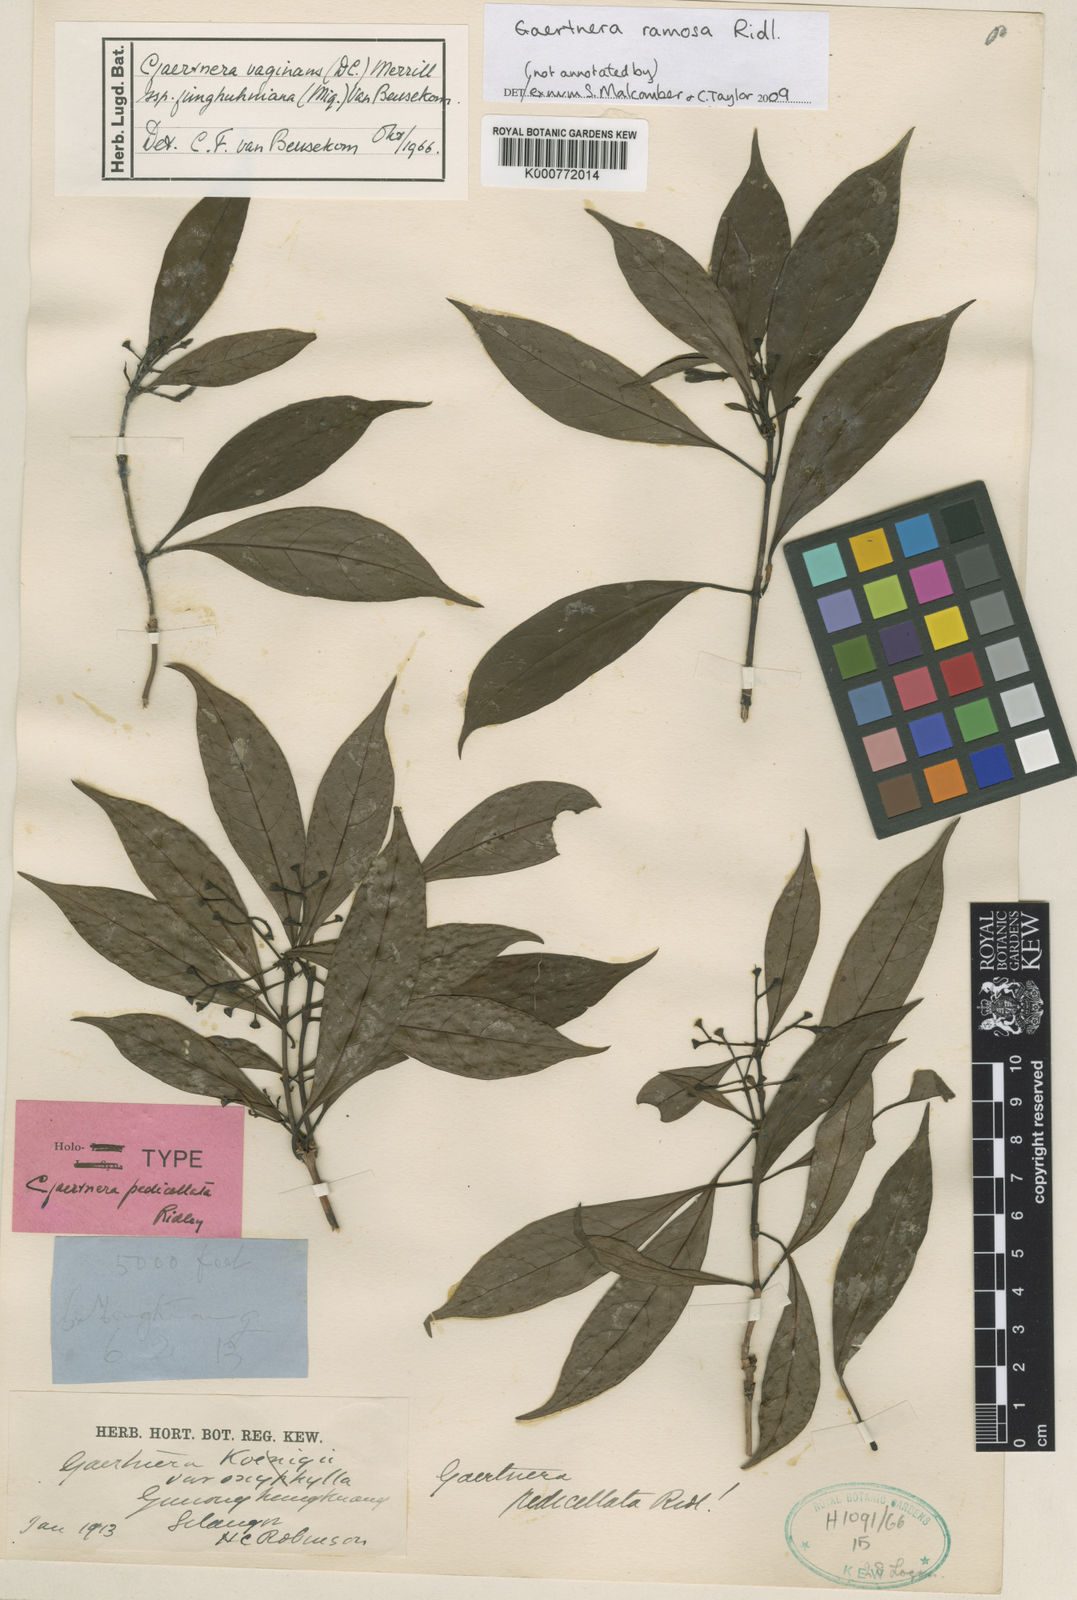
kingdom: Plantae
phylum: Tracheophyta
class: Magnoliopsida
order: Gentianales
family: Rubiaceae
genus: Gaertnera
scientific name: Gaertnera ramosa
